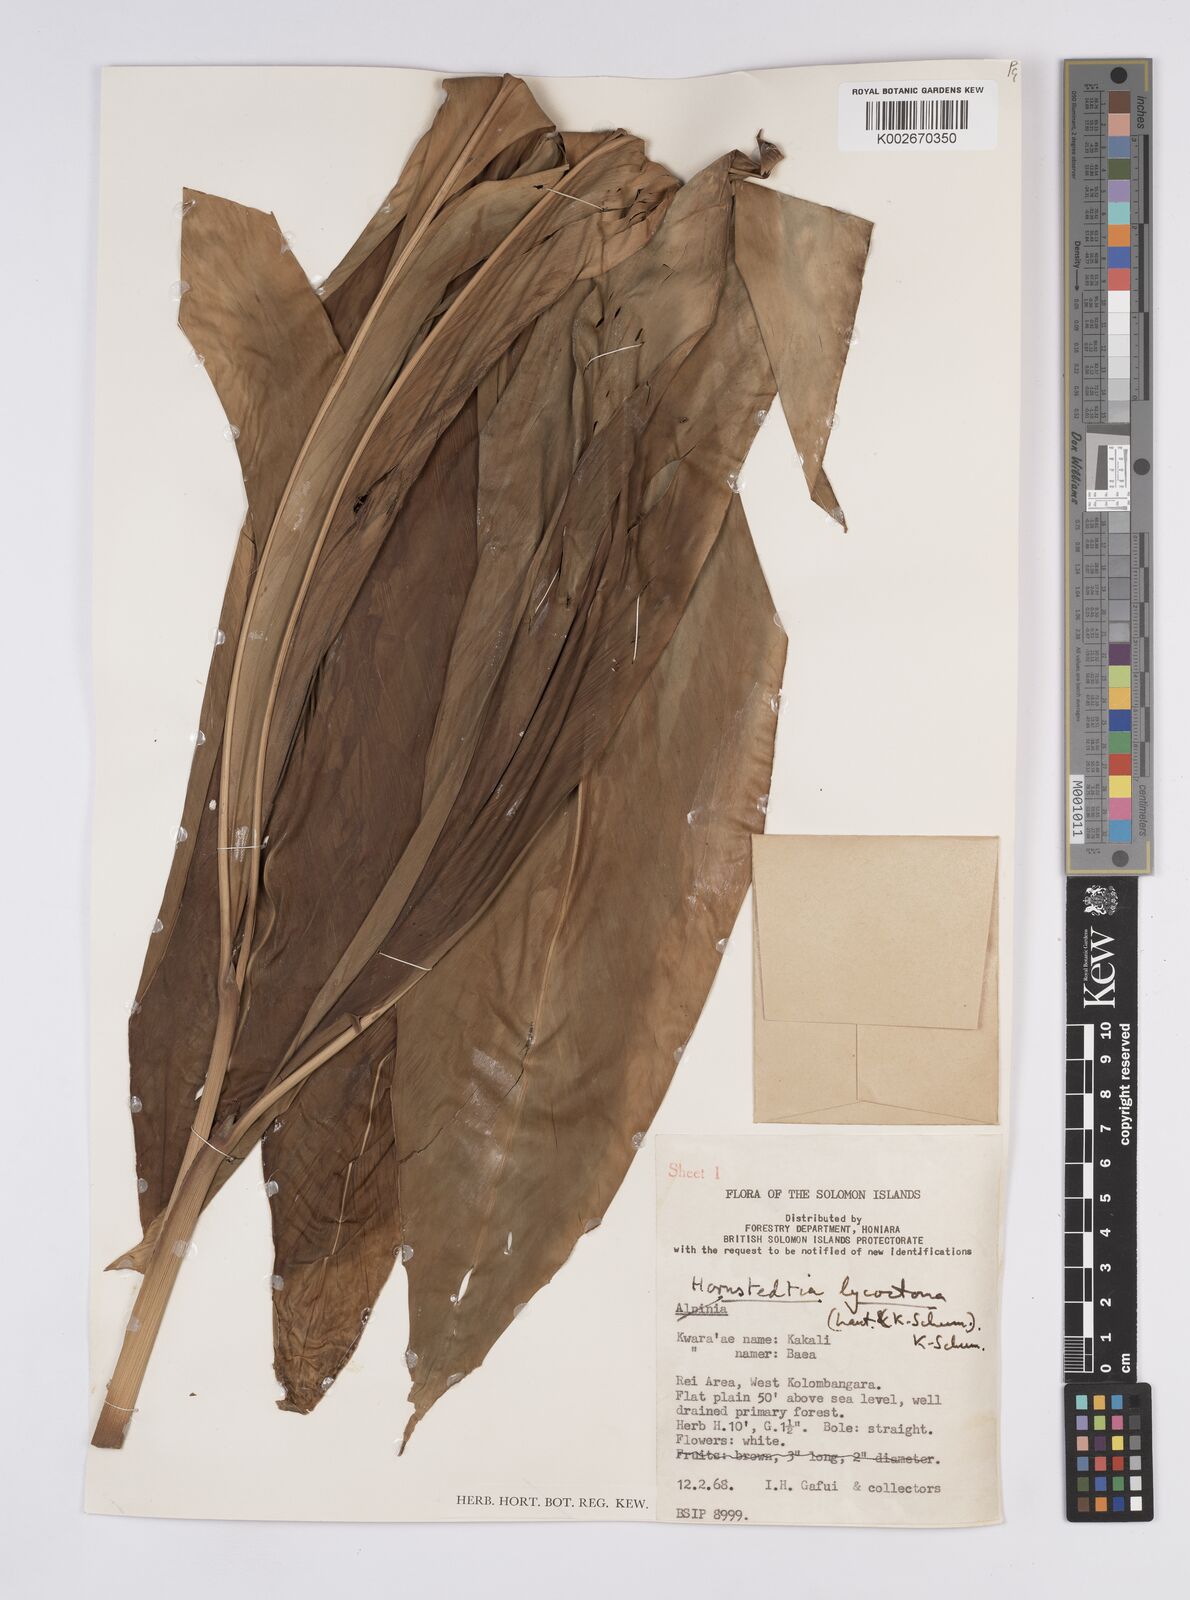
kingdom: Plantae
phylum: Tracheophyta
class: Liliopsida
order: Zingiberales
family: Zingiberaceae
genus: Hornstedtia
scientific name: Hornstedtia scottiana
